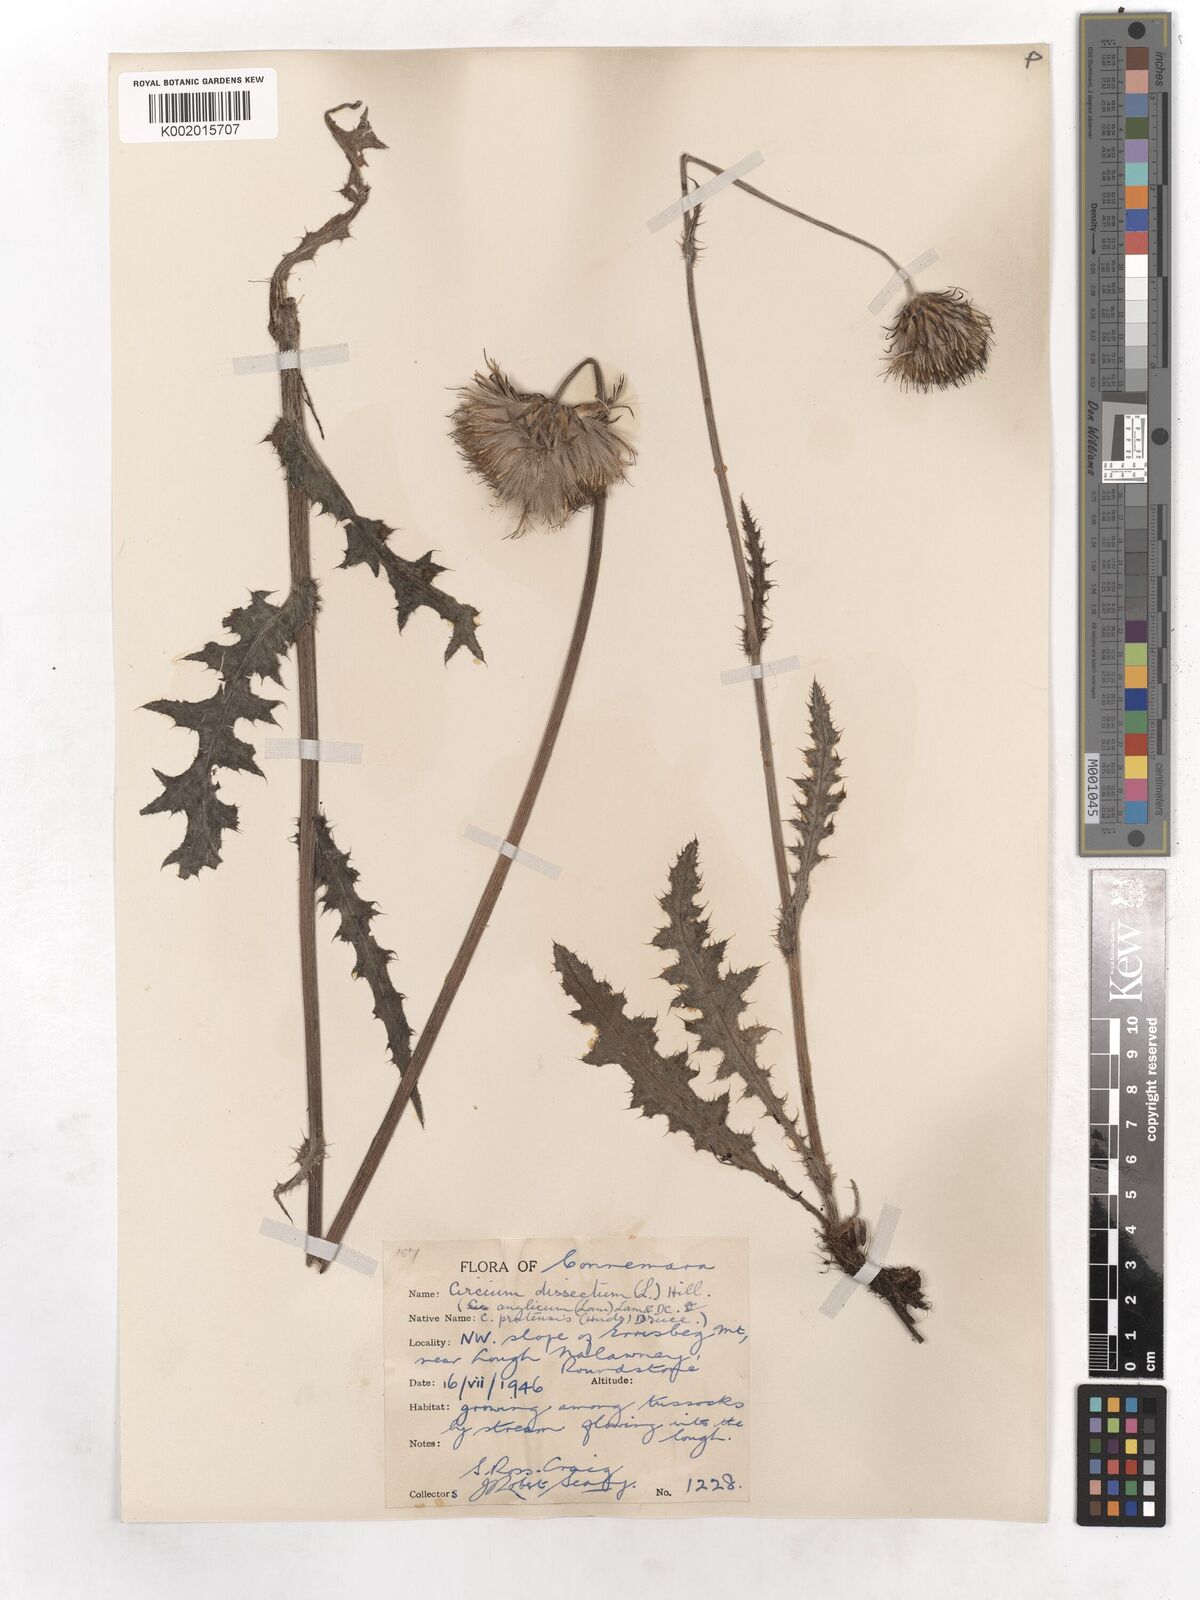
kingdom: Plantae
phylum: Tracheophyta
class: Magnoliopsida
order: Asterales
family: Asteraceae
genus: Cirsium
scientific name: Cirsium dissectum
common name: Meadow thistle
